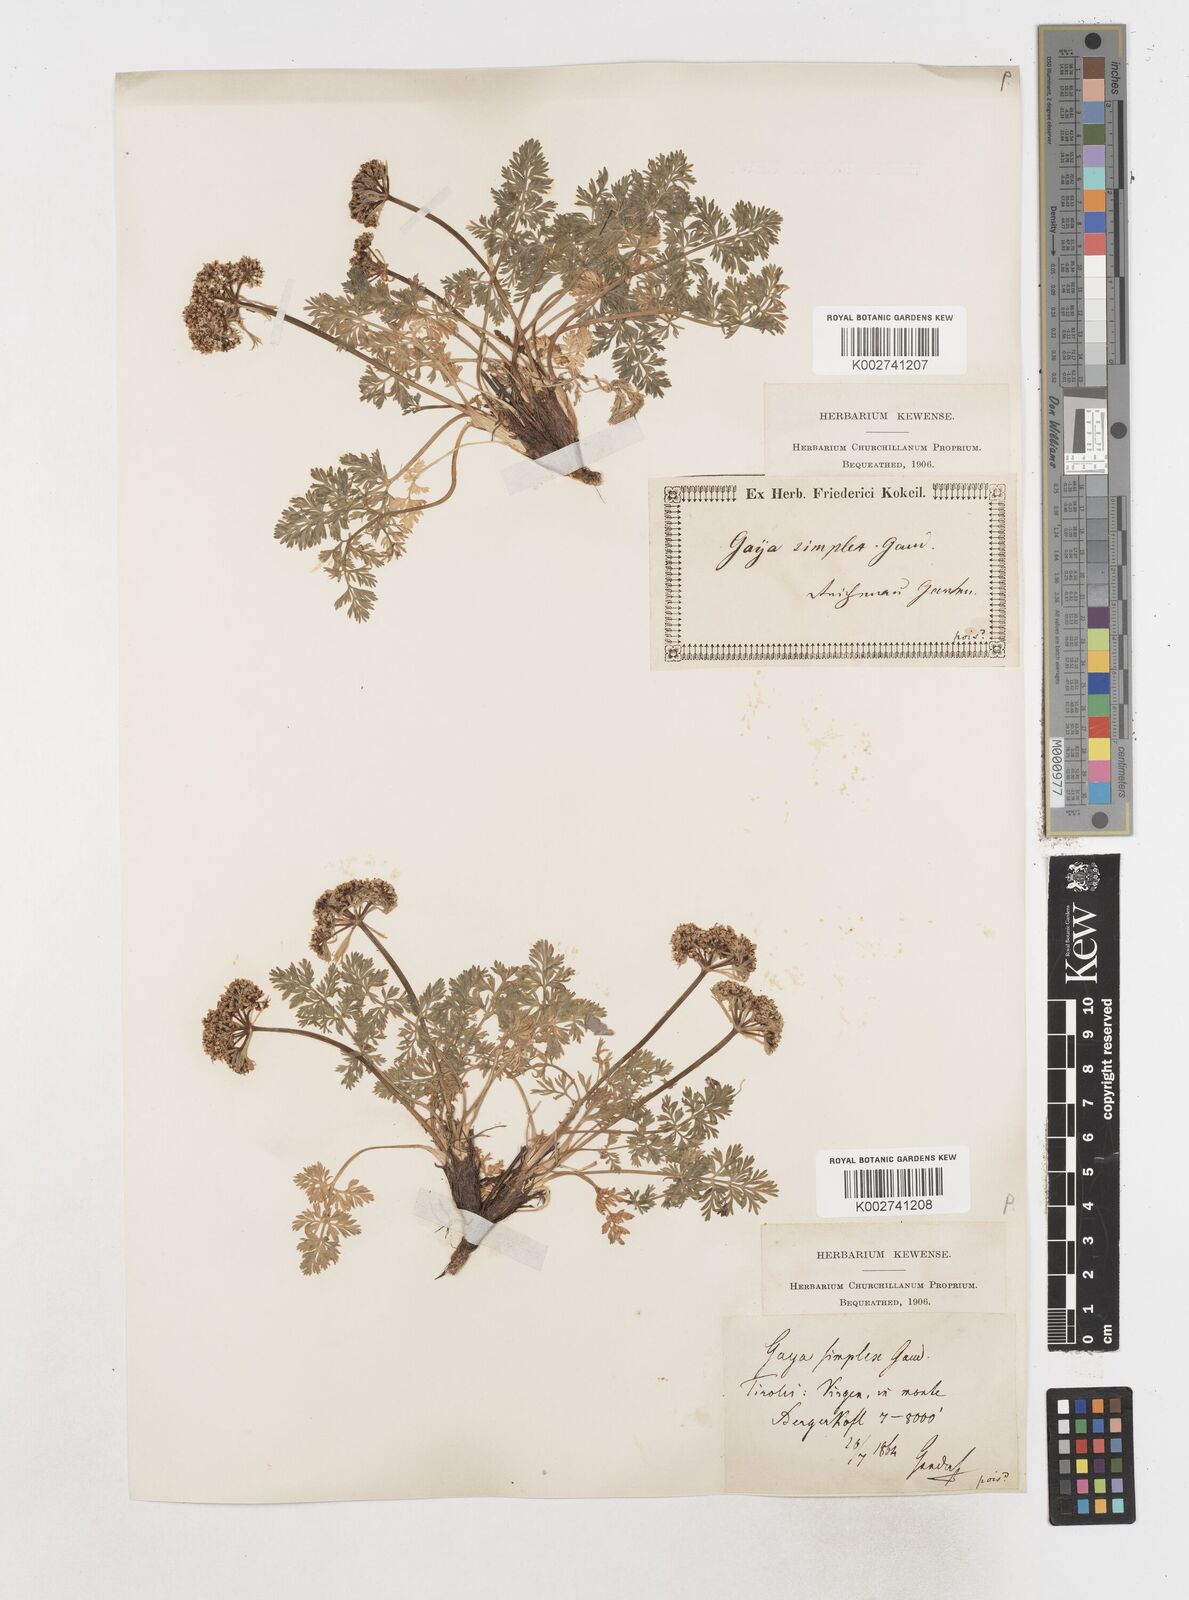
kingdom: Plantae
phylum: Tracheophyta
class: Magnoliopsida
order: Apiales
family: Apiaceae
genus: Pachypleurum
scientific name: Pachypleurum mutellinoides
